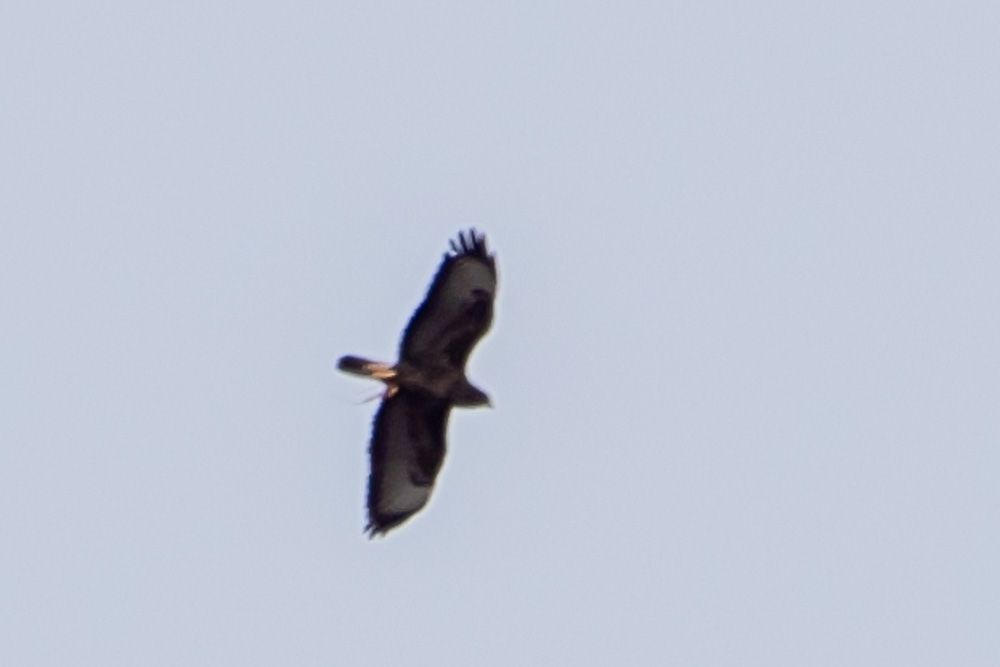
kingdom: Animalia
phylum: Chordata
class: Aves
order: Accipitriformes
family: Accipitridae
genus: Buteo
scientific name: Buteo buteo
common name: Common buzzard
